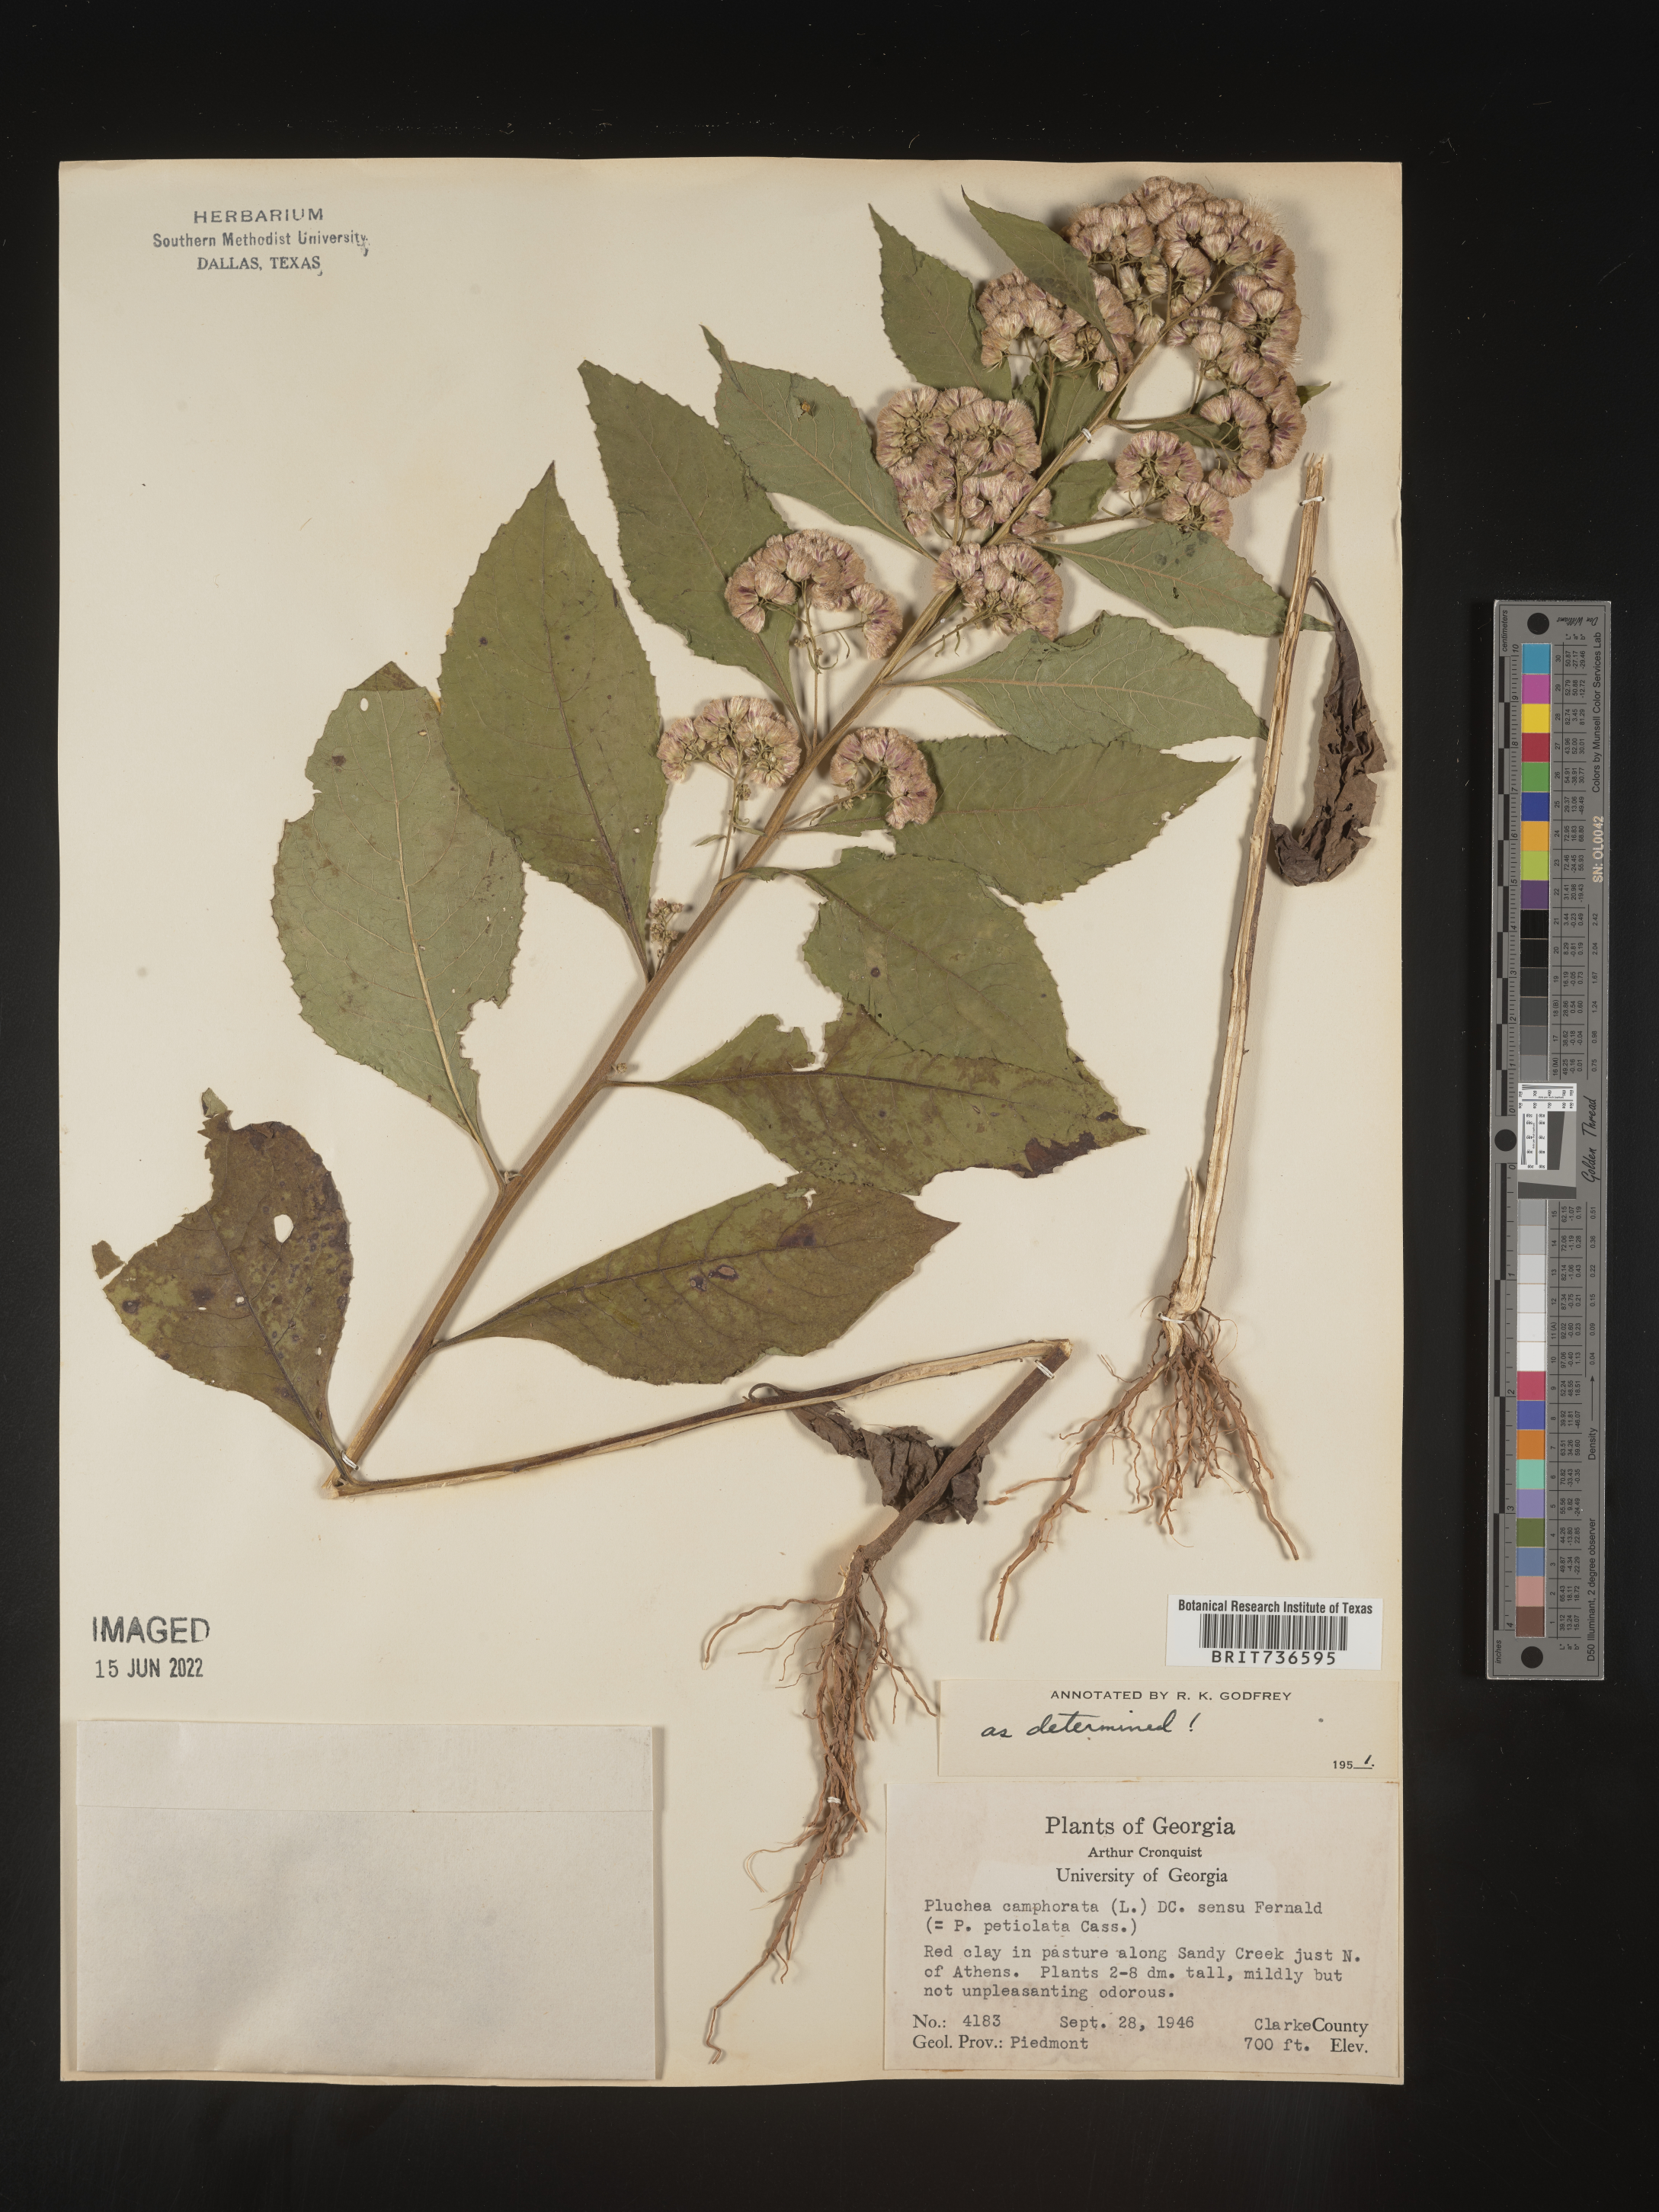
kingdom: Plantae
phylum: Tracheophyta
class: Magnoliopsida
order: Asterales
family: Asteraceae
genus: Pluchea
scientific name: Pluchea camphorata
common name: Camphor pluchea
